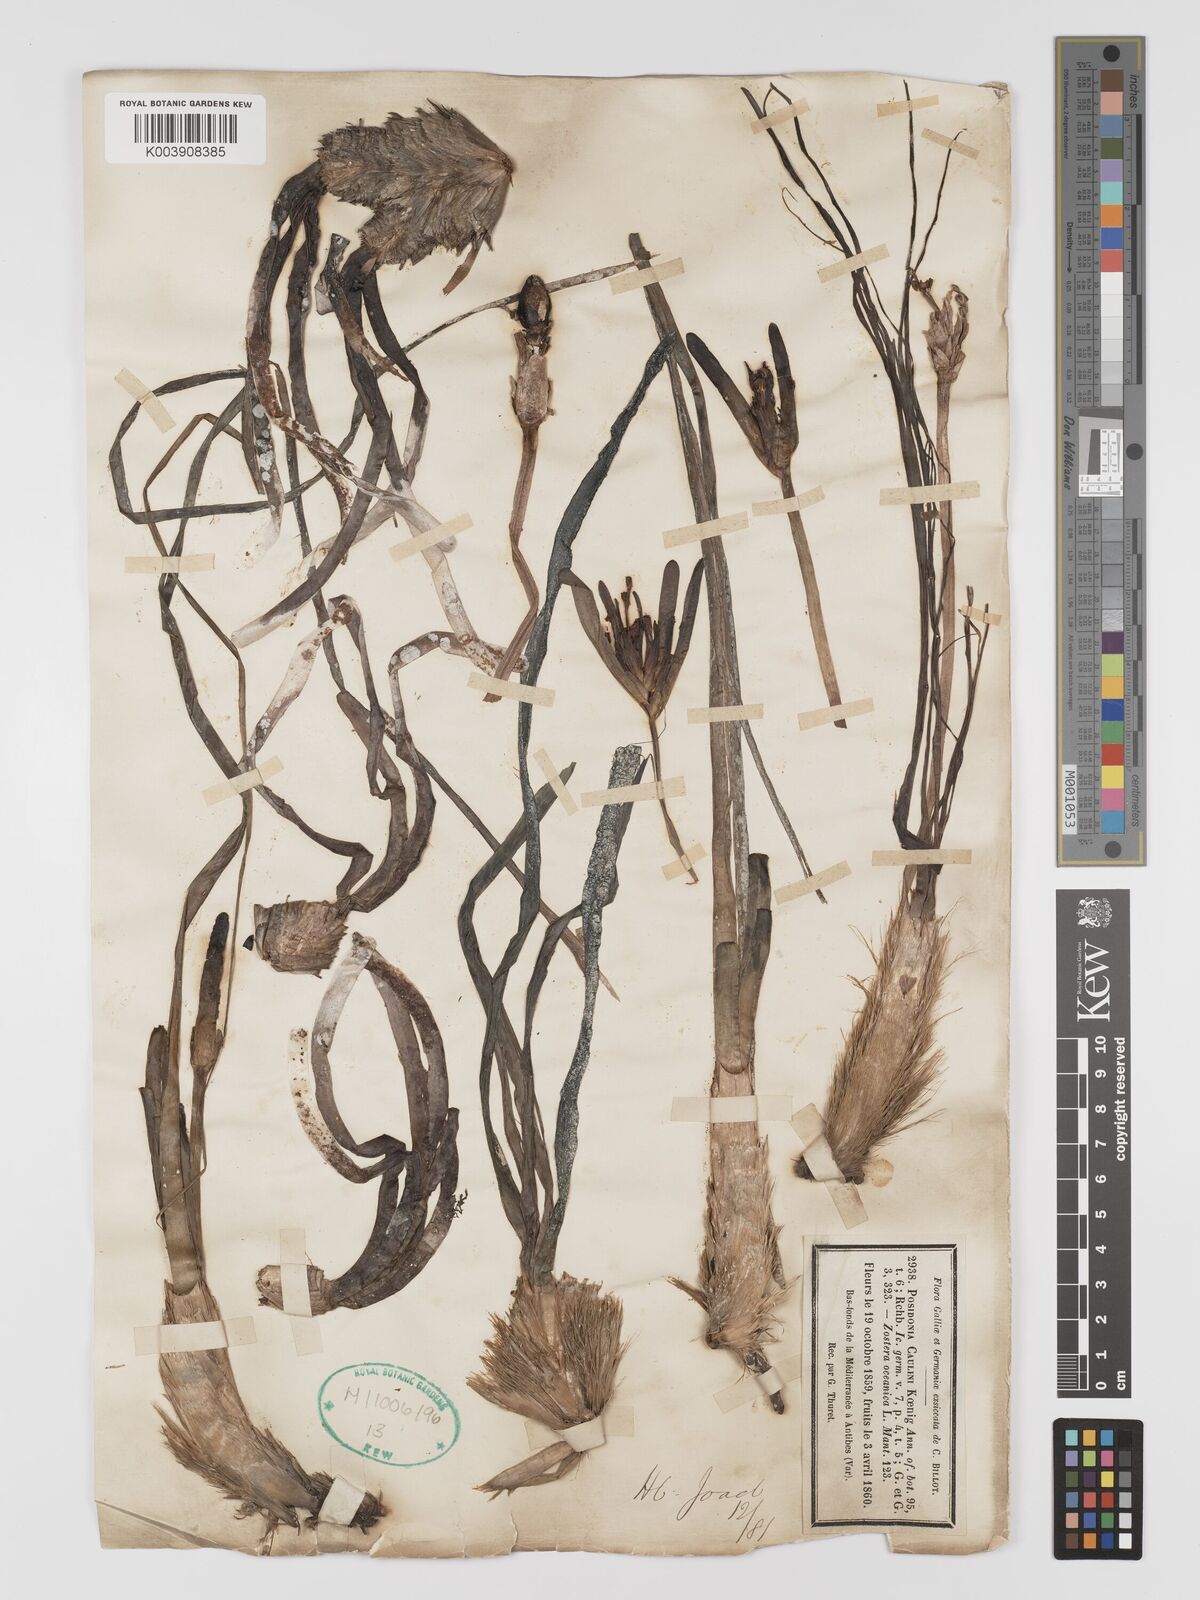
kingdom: Plantae
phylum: Tracheophyta
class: Liliopsida
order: Alismatales
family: Posidoniaceae
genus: Posidonia
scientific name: Posidonia oceanica
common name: Mediterranean tapeweed
